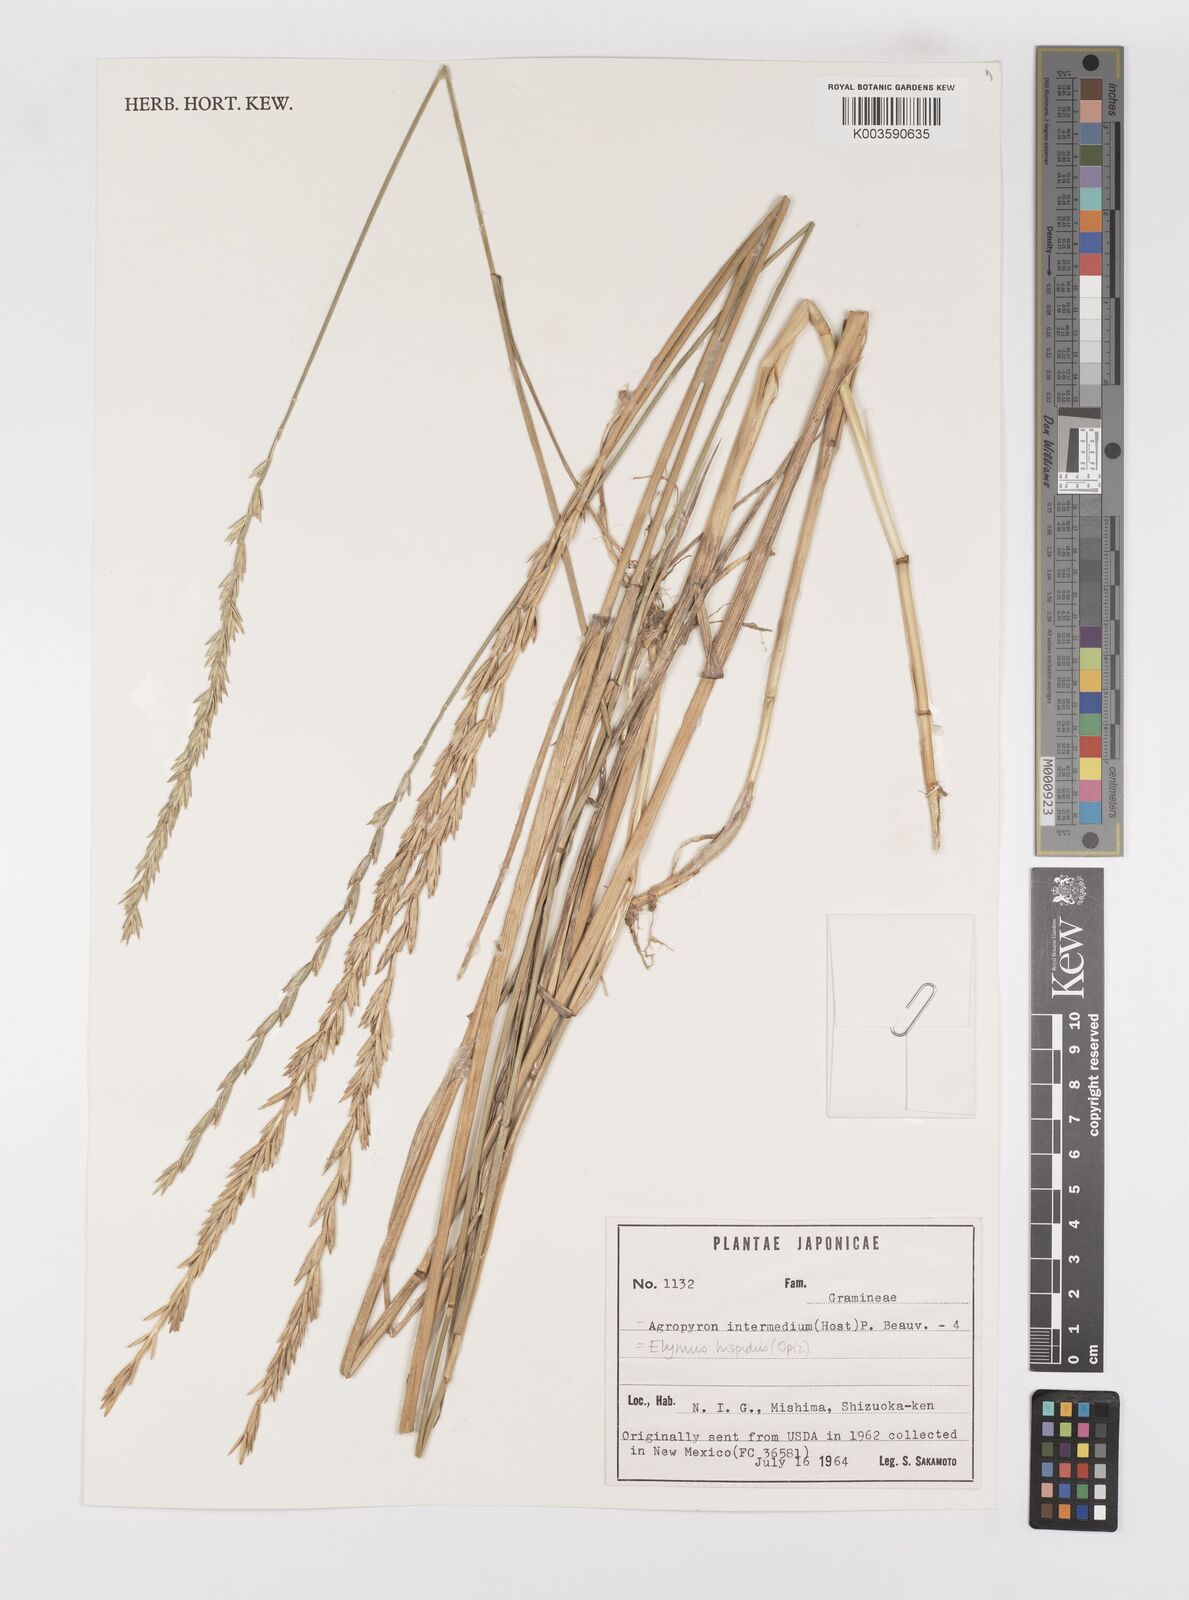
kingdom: Plantae
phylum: Tracheophyta
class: Liliopsida
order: Poales
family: Poaceae
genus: Thinopyrum
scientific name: Thinopyrum intermedium
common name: Intermediate wheatgrass
